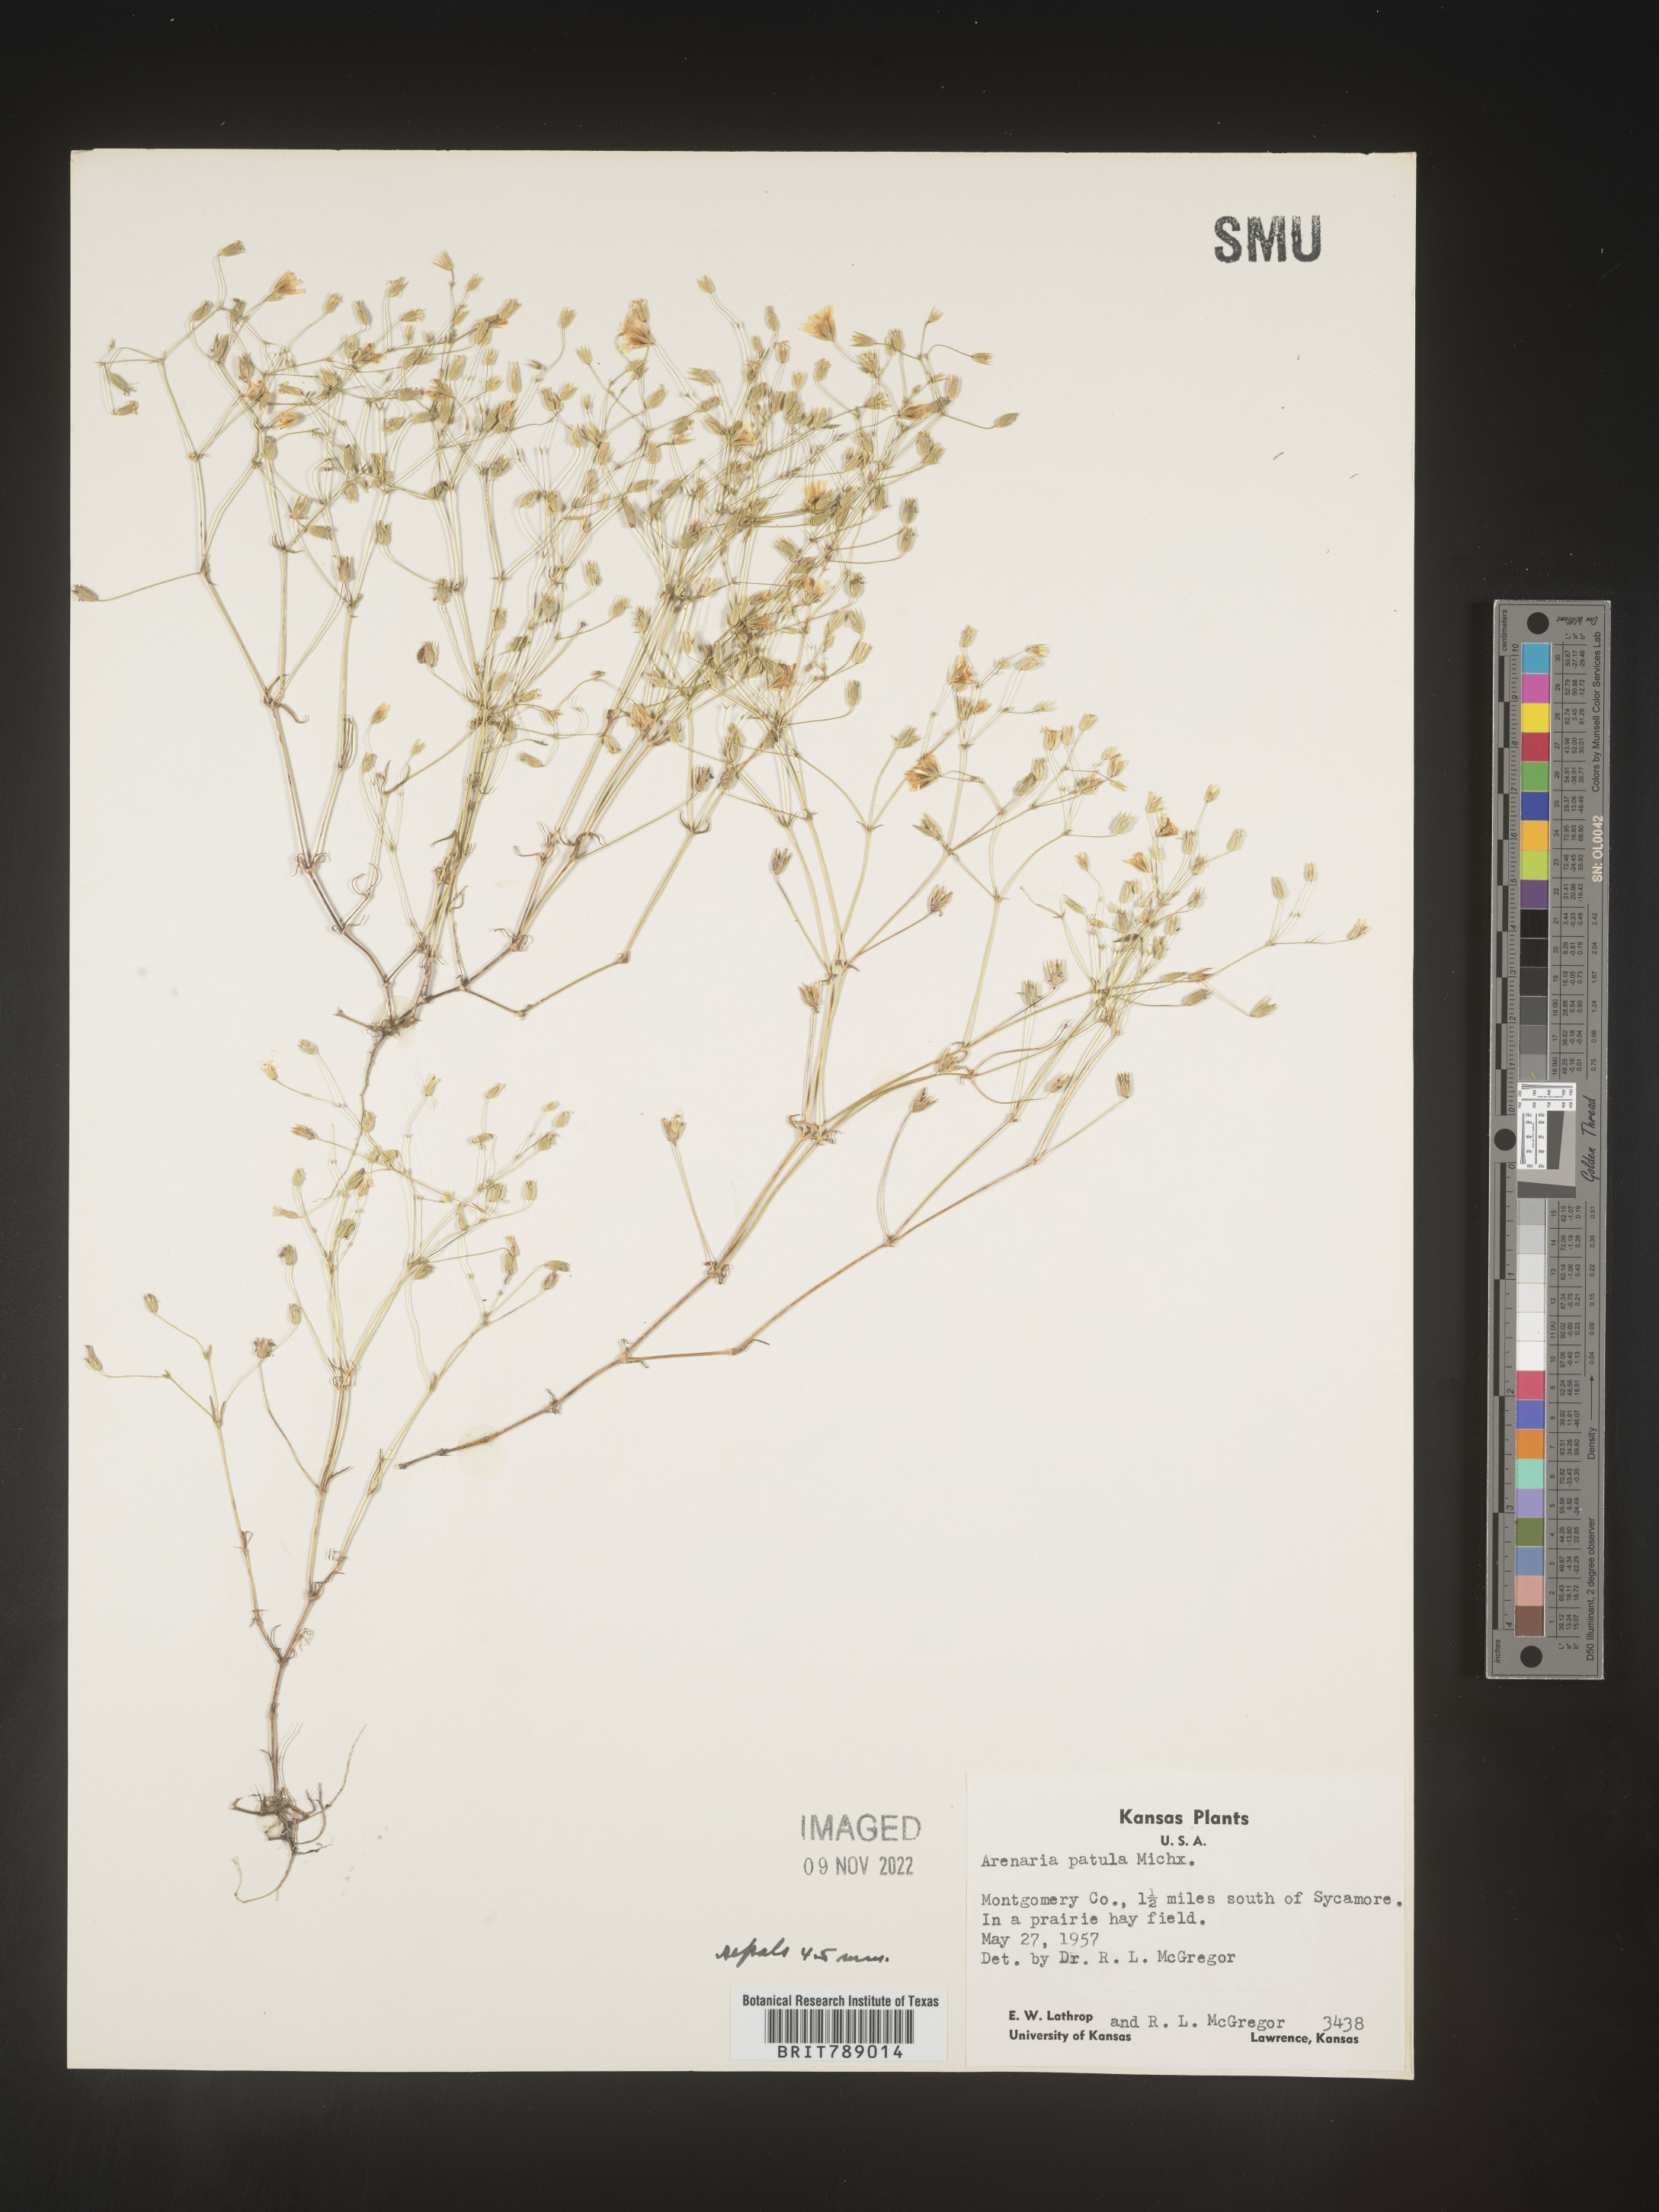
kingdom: Plantae
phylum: Tracheophyta
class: Magnoliopsida
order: Caryophyllales
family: Caryophyllaceae
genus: Mononeuria
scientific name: Mononeuria patula
